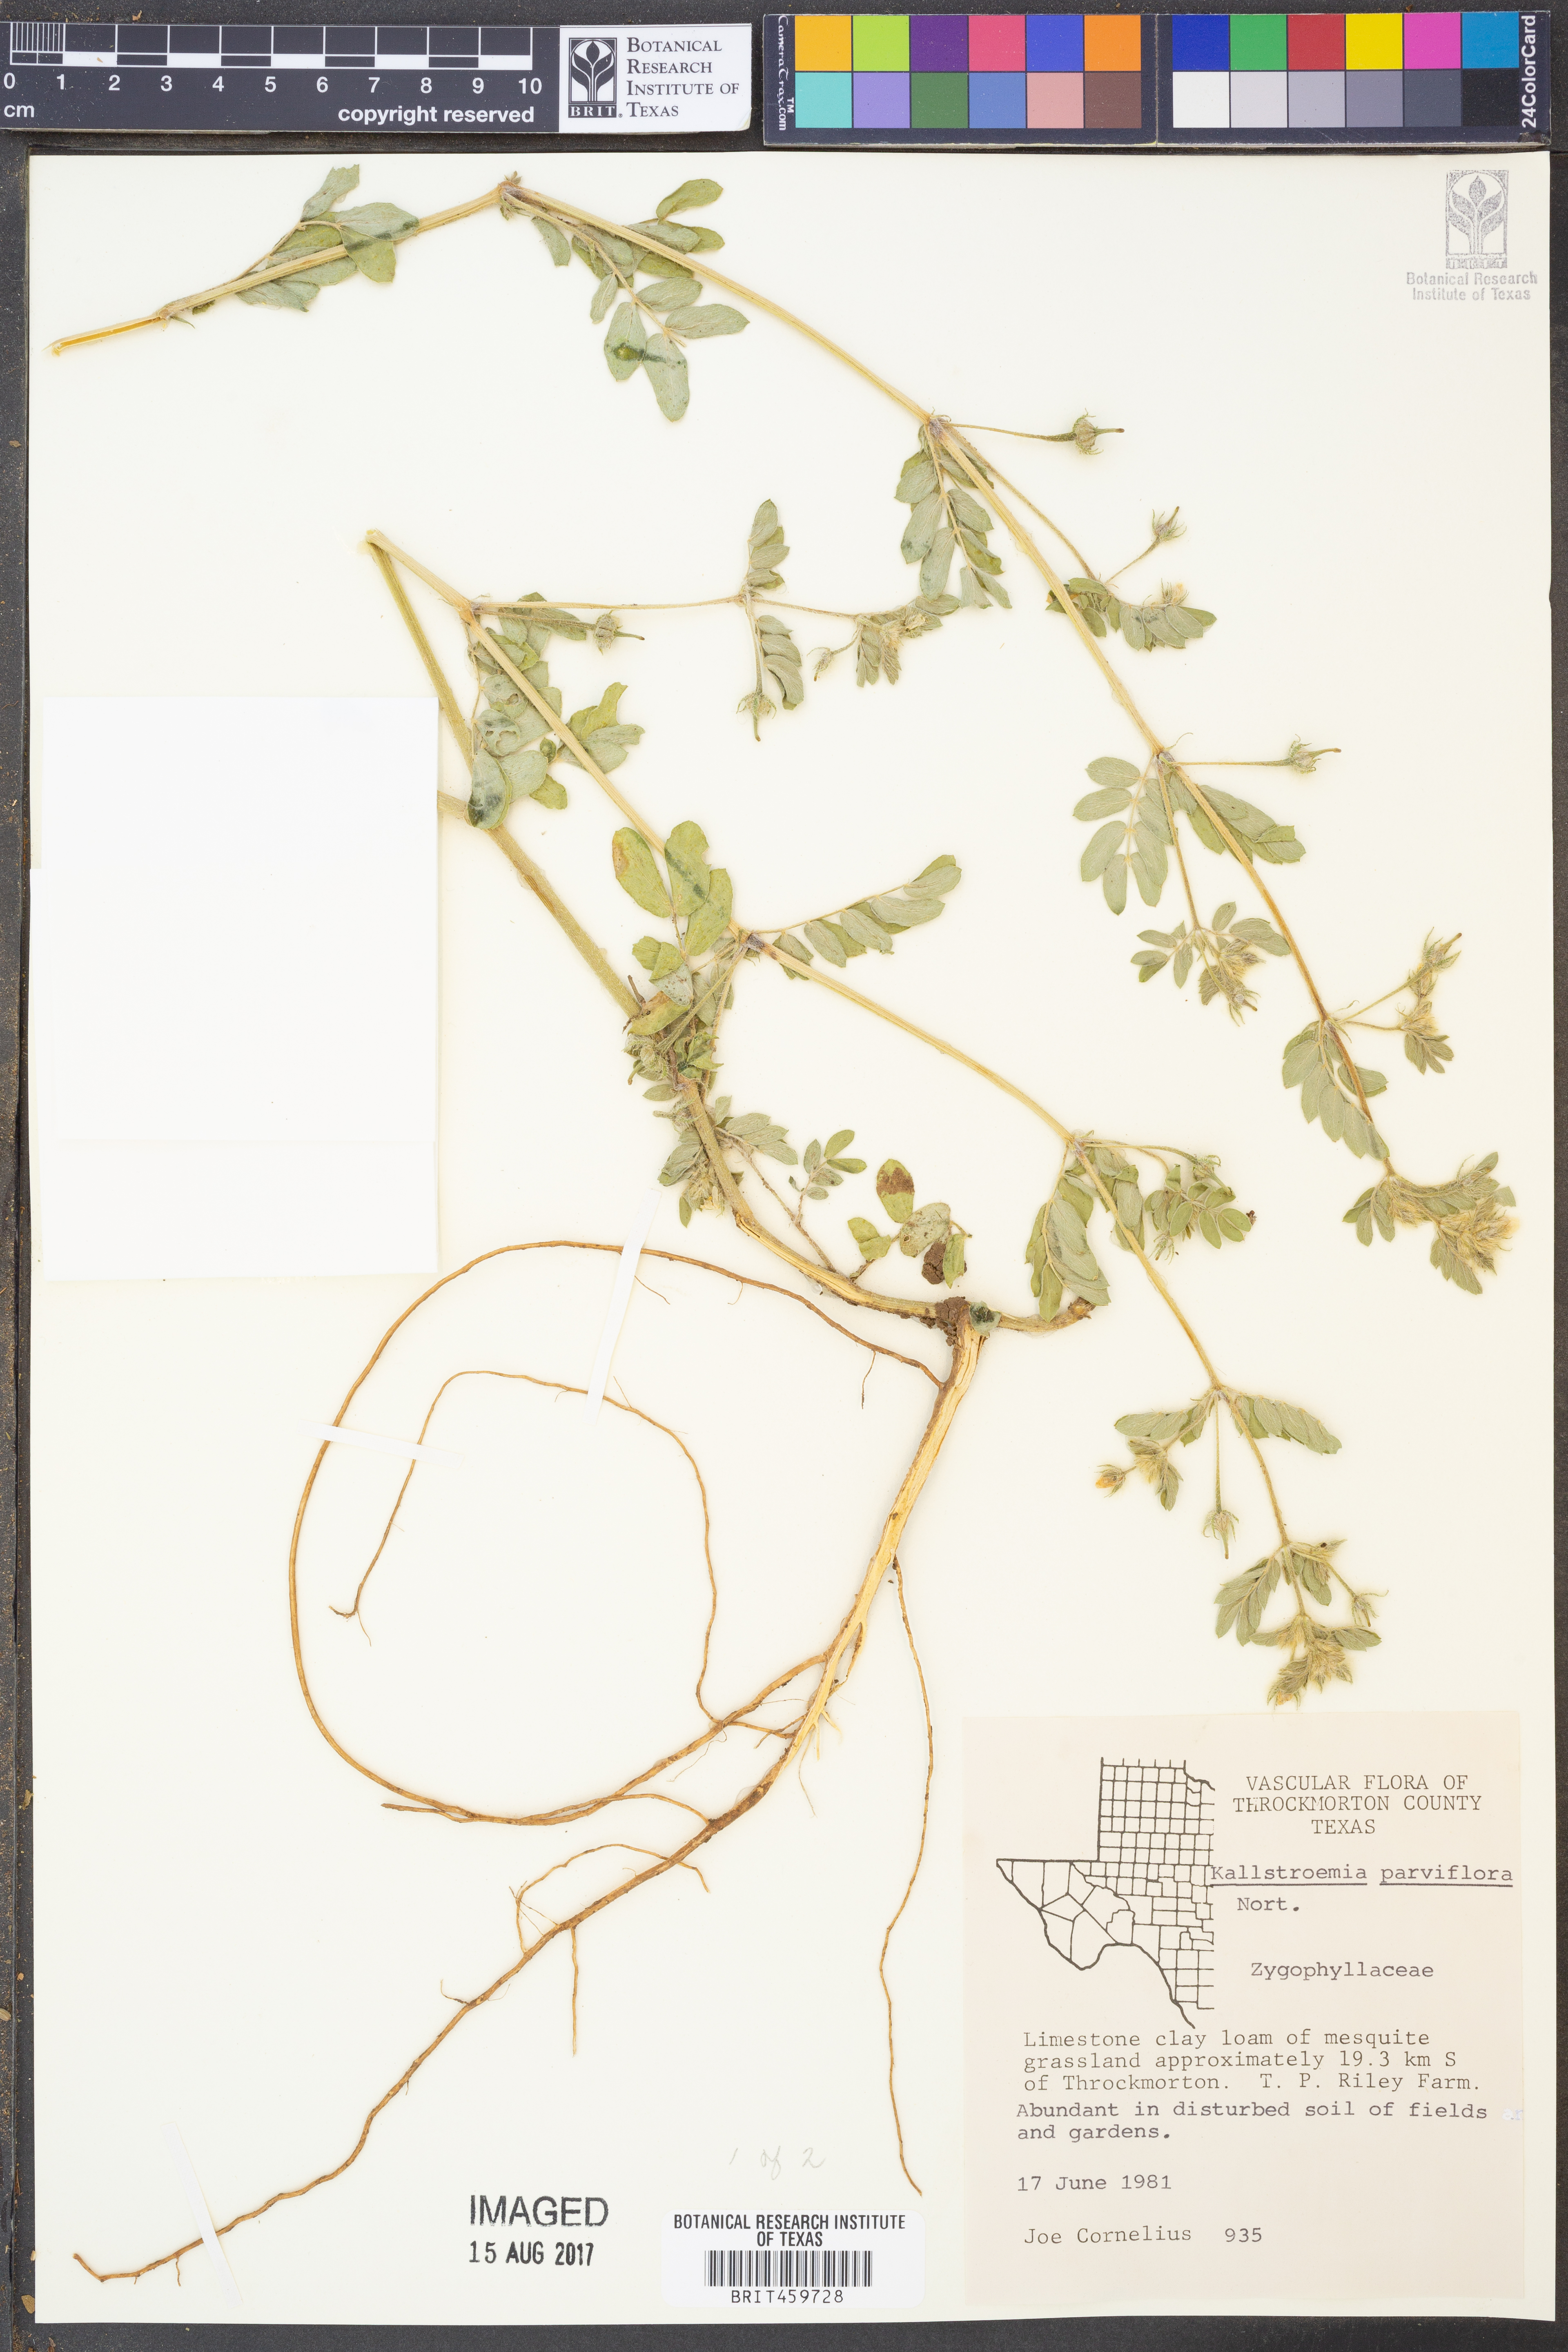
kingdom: Plantae
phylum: Tracheophyta
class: Magnoliopsida
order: Zygophyllales
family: Zygophyllaceae
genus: Kallstroemia
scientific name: Kallstroemia parviflora
